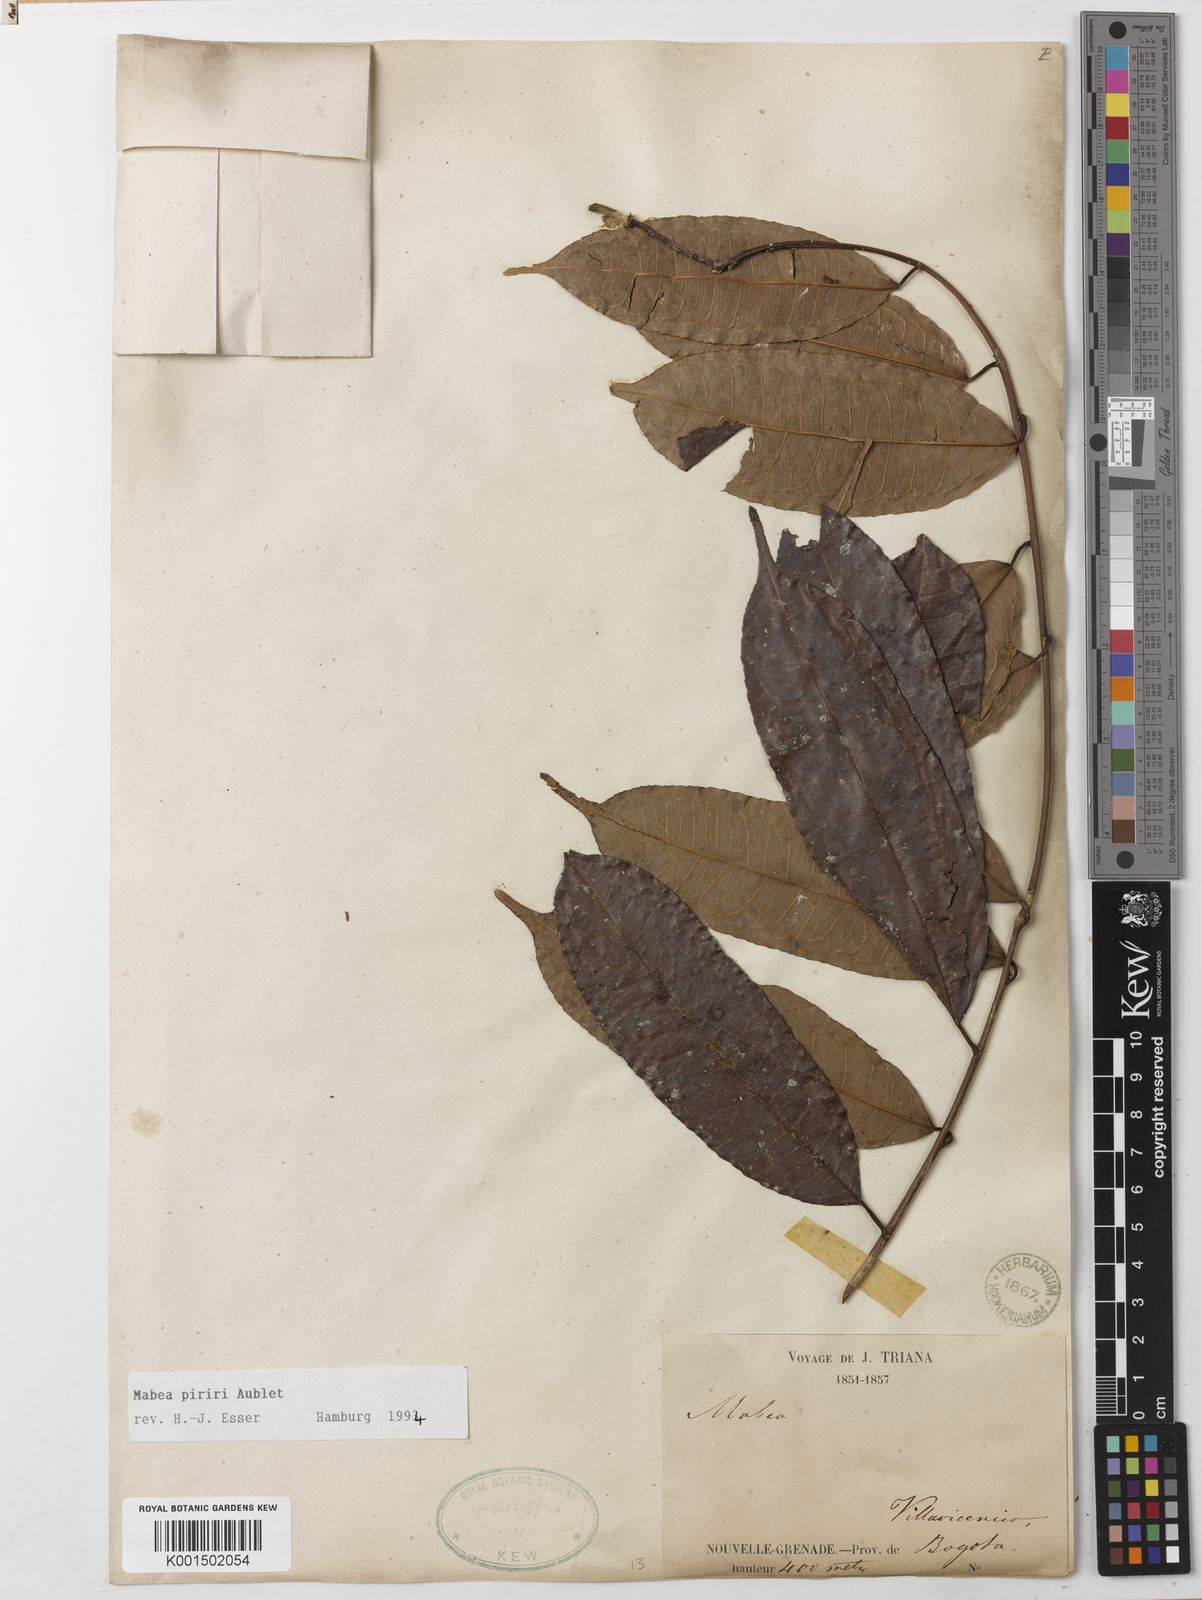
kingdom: Plantae
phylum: Tracheophyta
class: Magnoliopsida
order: Malpighiales
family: Euphorbiaceae
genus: Mabea
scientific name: Mabea piriri
